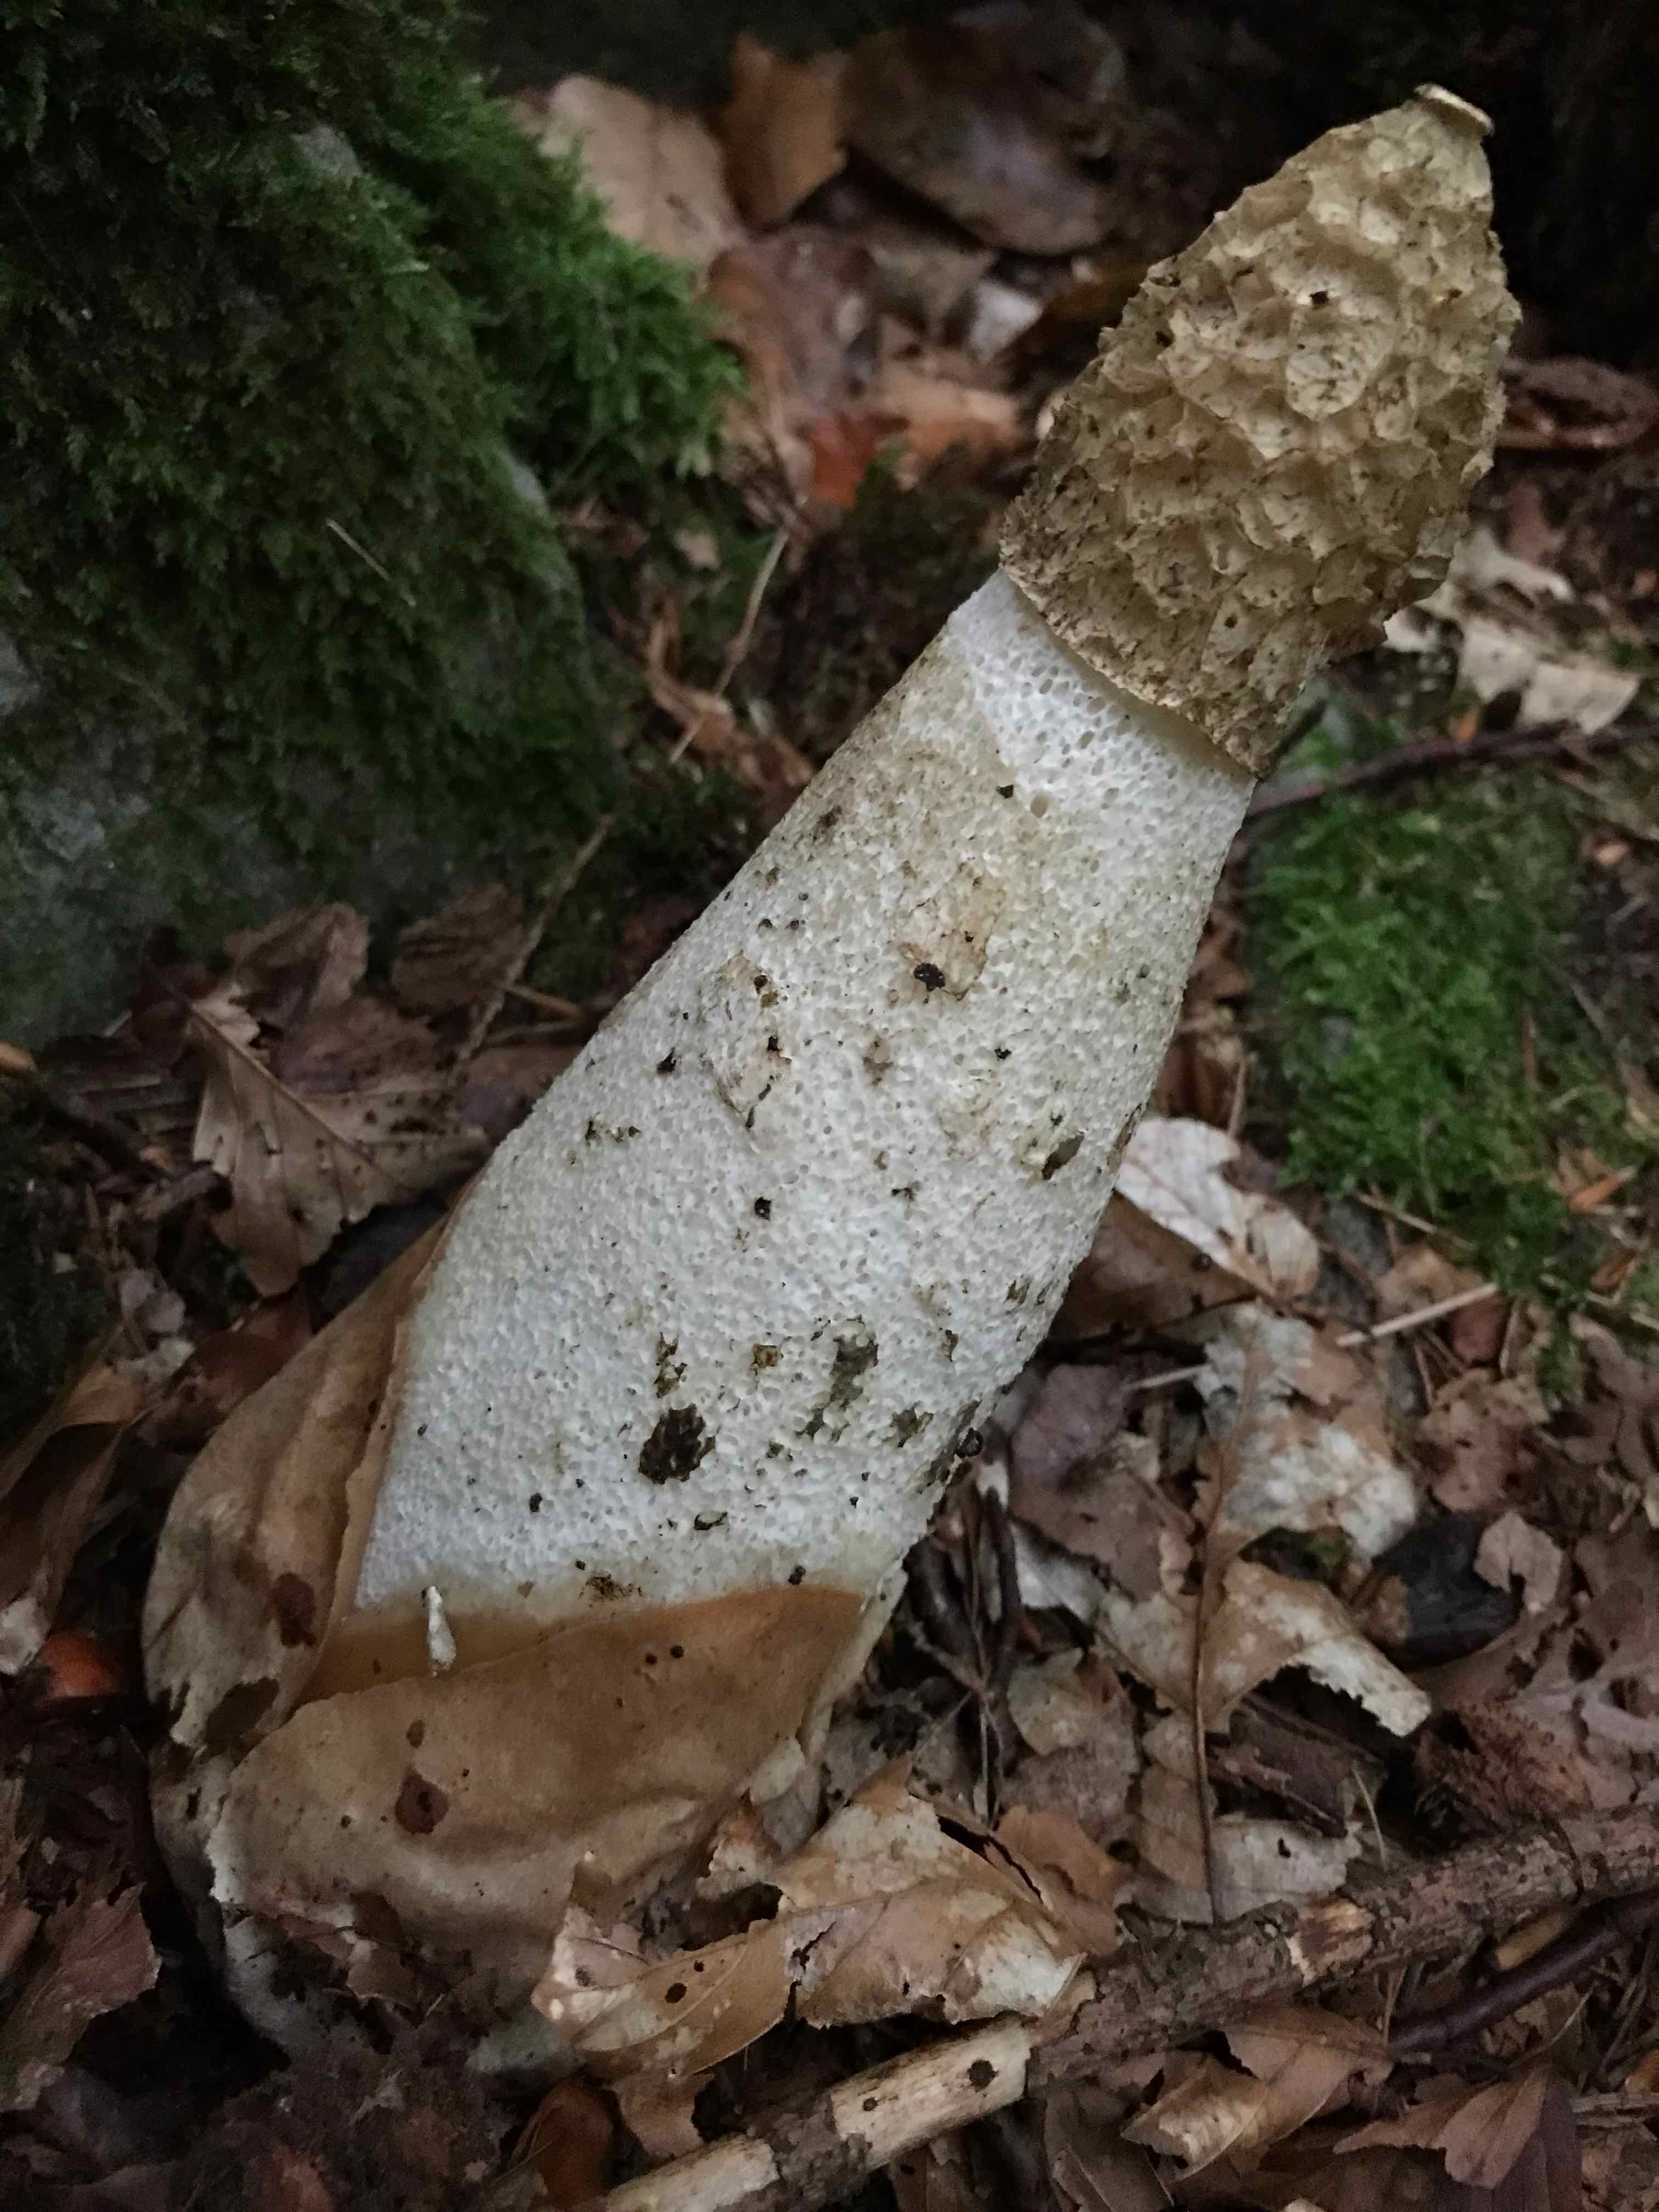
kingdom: Fungi
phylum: Basidiomycota
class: Agaricomycetes
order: Phallales
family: Phallaceae
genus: Phallus
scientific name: Phallus impudicus
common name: almindelig stinksvamp
